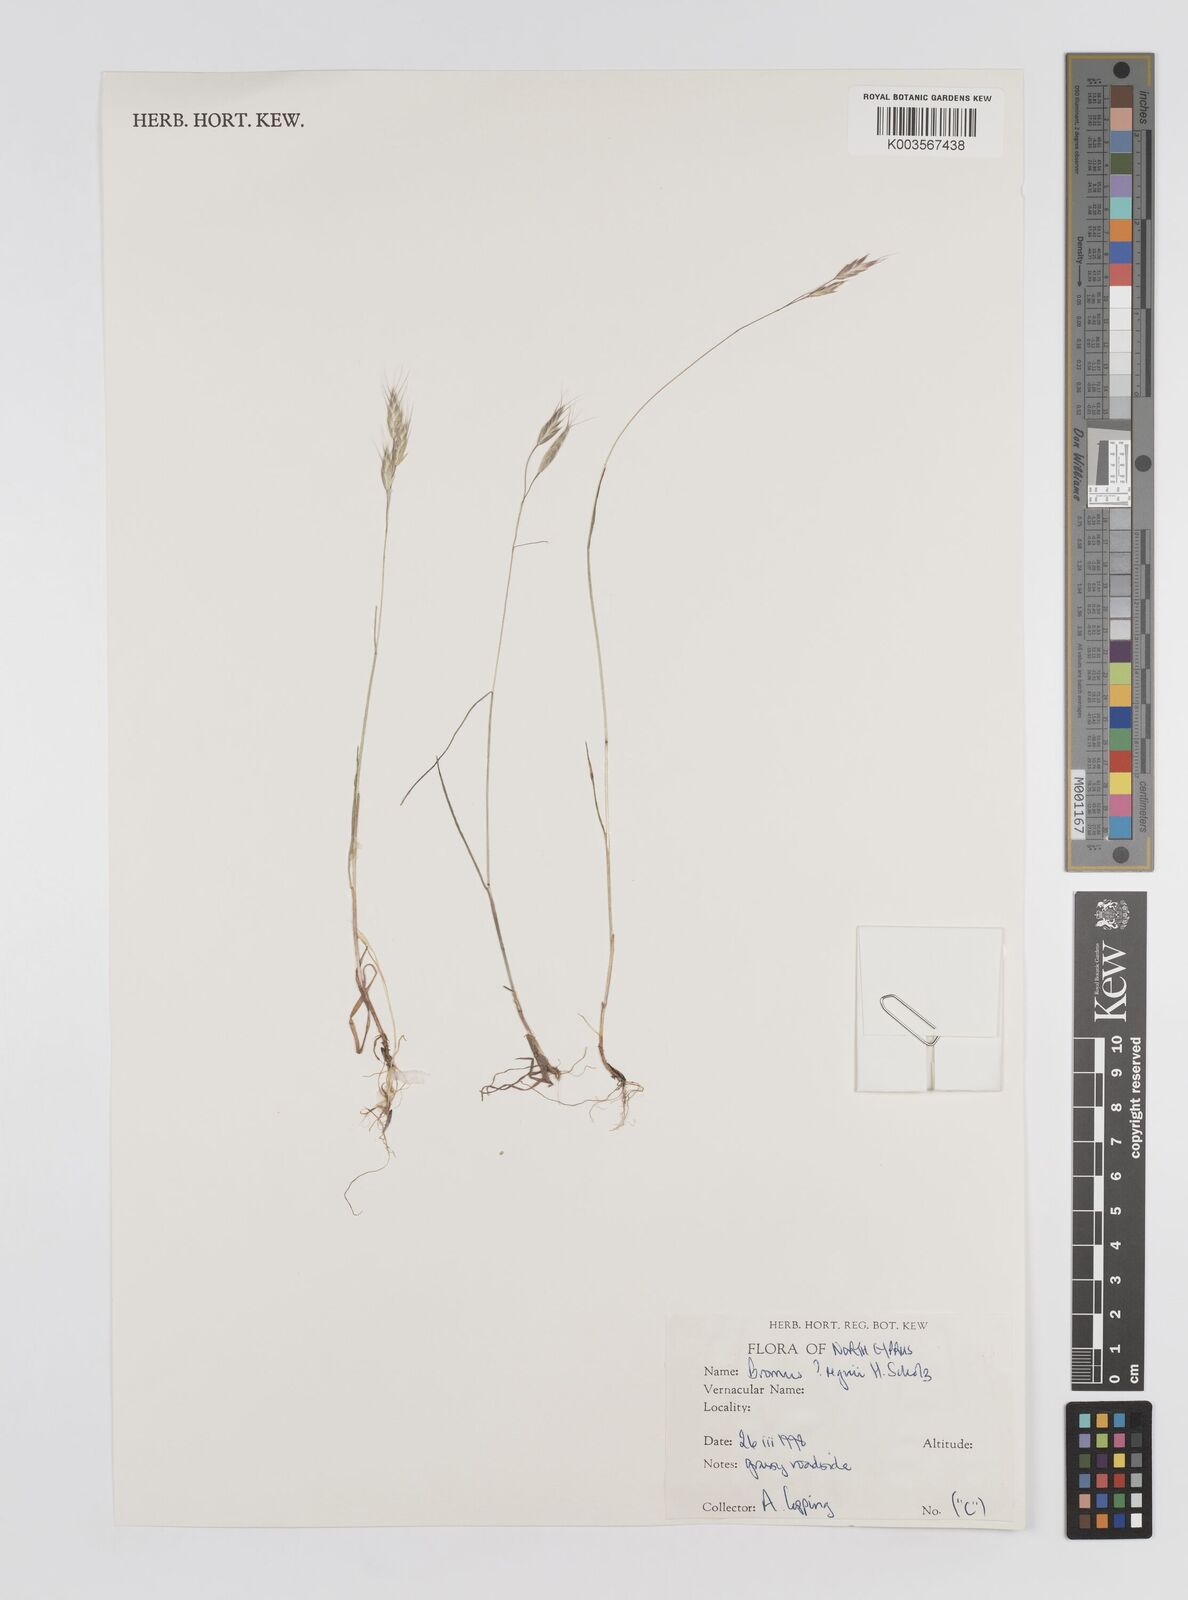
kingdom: Plantae
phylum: Tracheophyta
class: Liliopsida
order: Poales
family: Poaceae
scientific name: Poaceae
